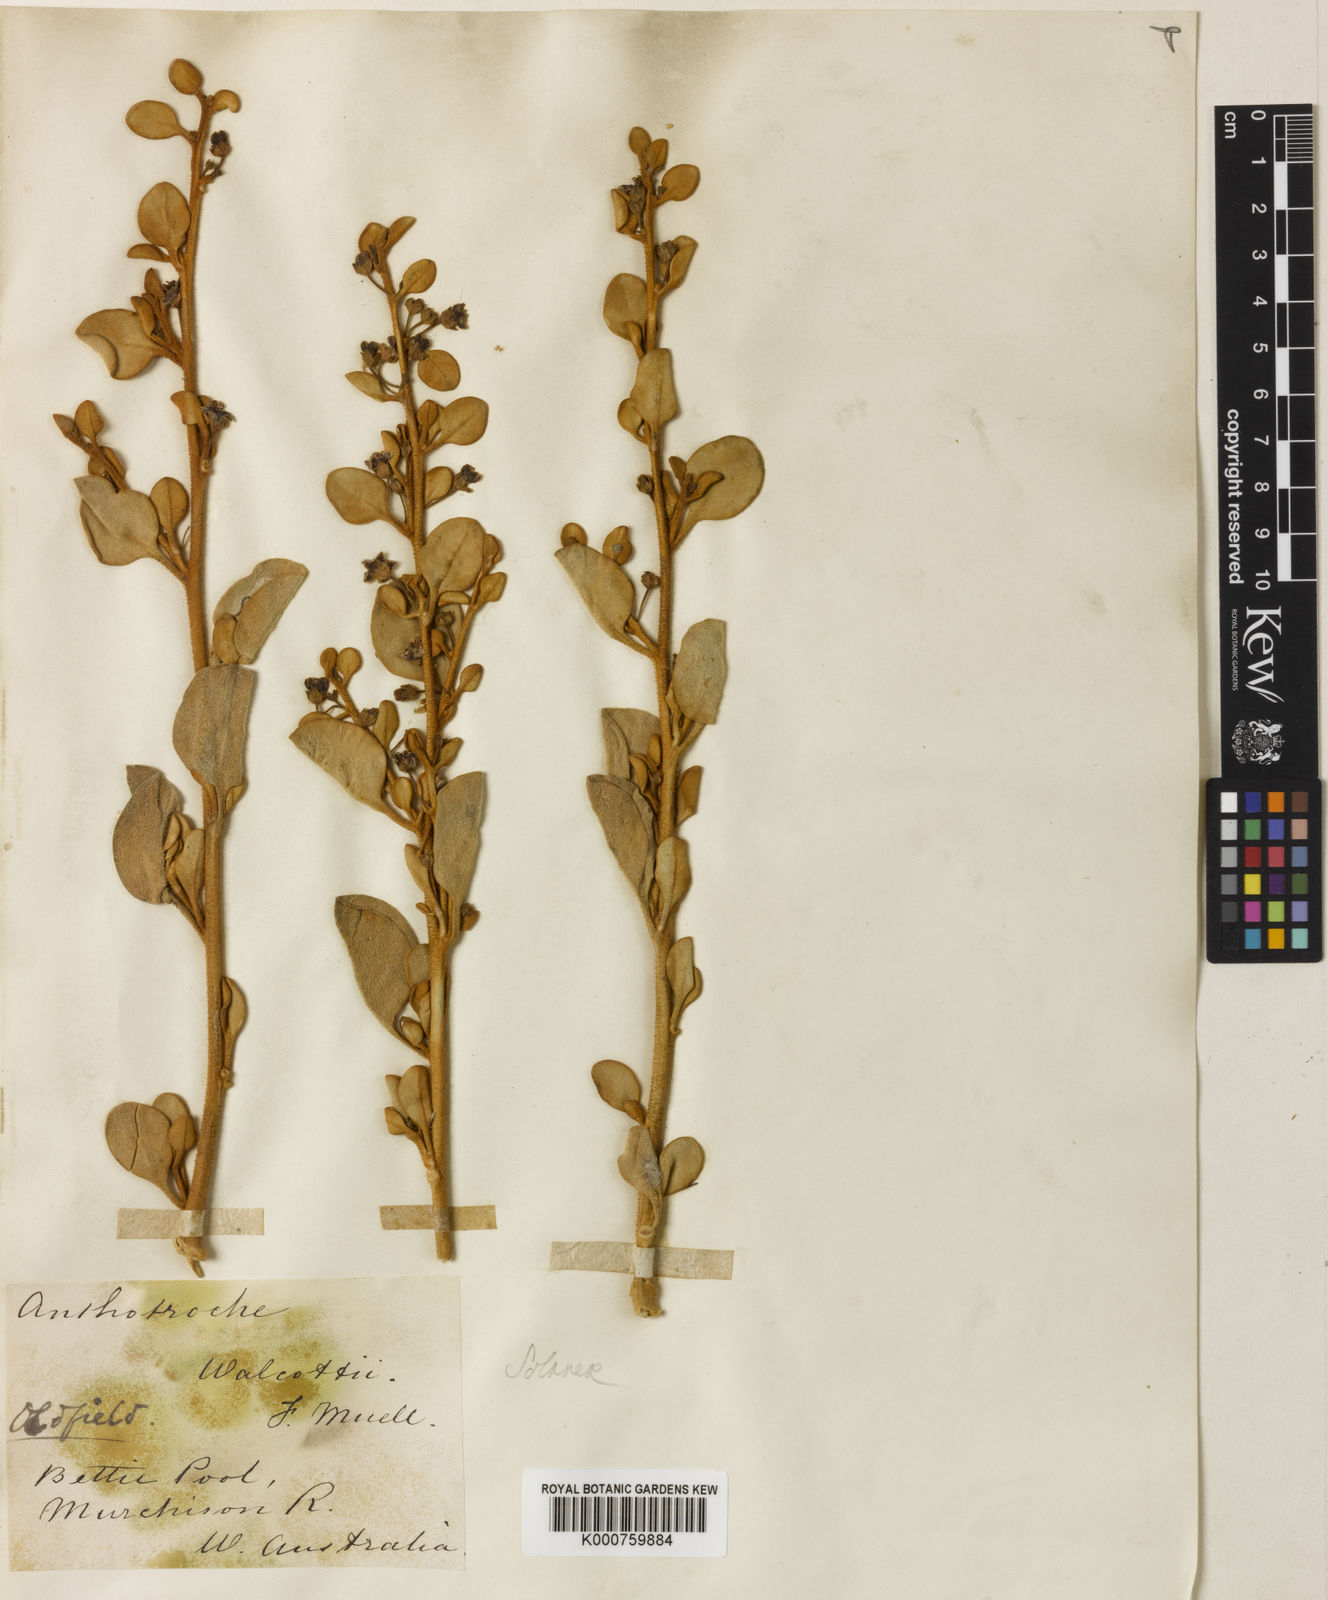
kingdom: Plantae
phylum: Tracheophyta
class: Magnoliopsida
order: Solanales
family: Solanaceae
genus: Anthotroche
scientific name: Anthotroche walcottii
